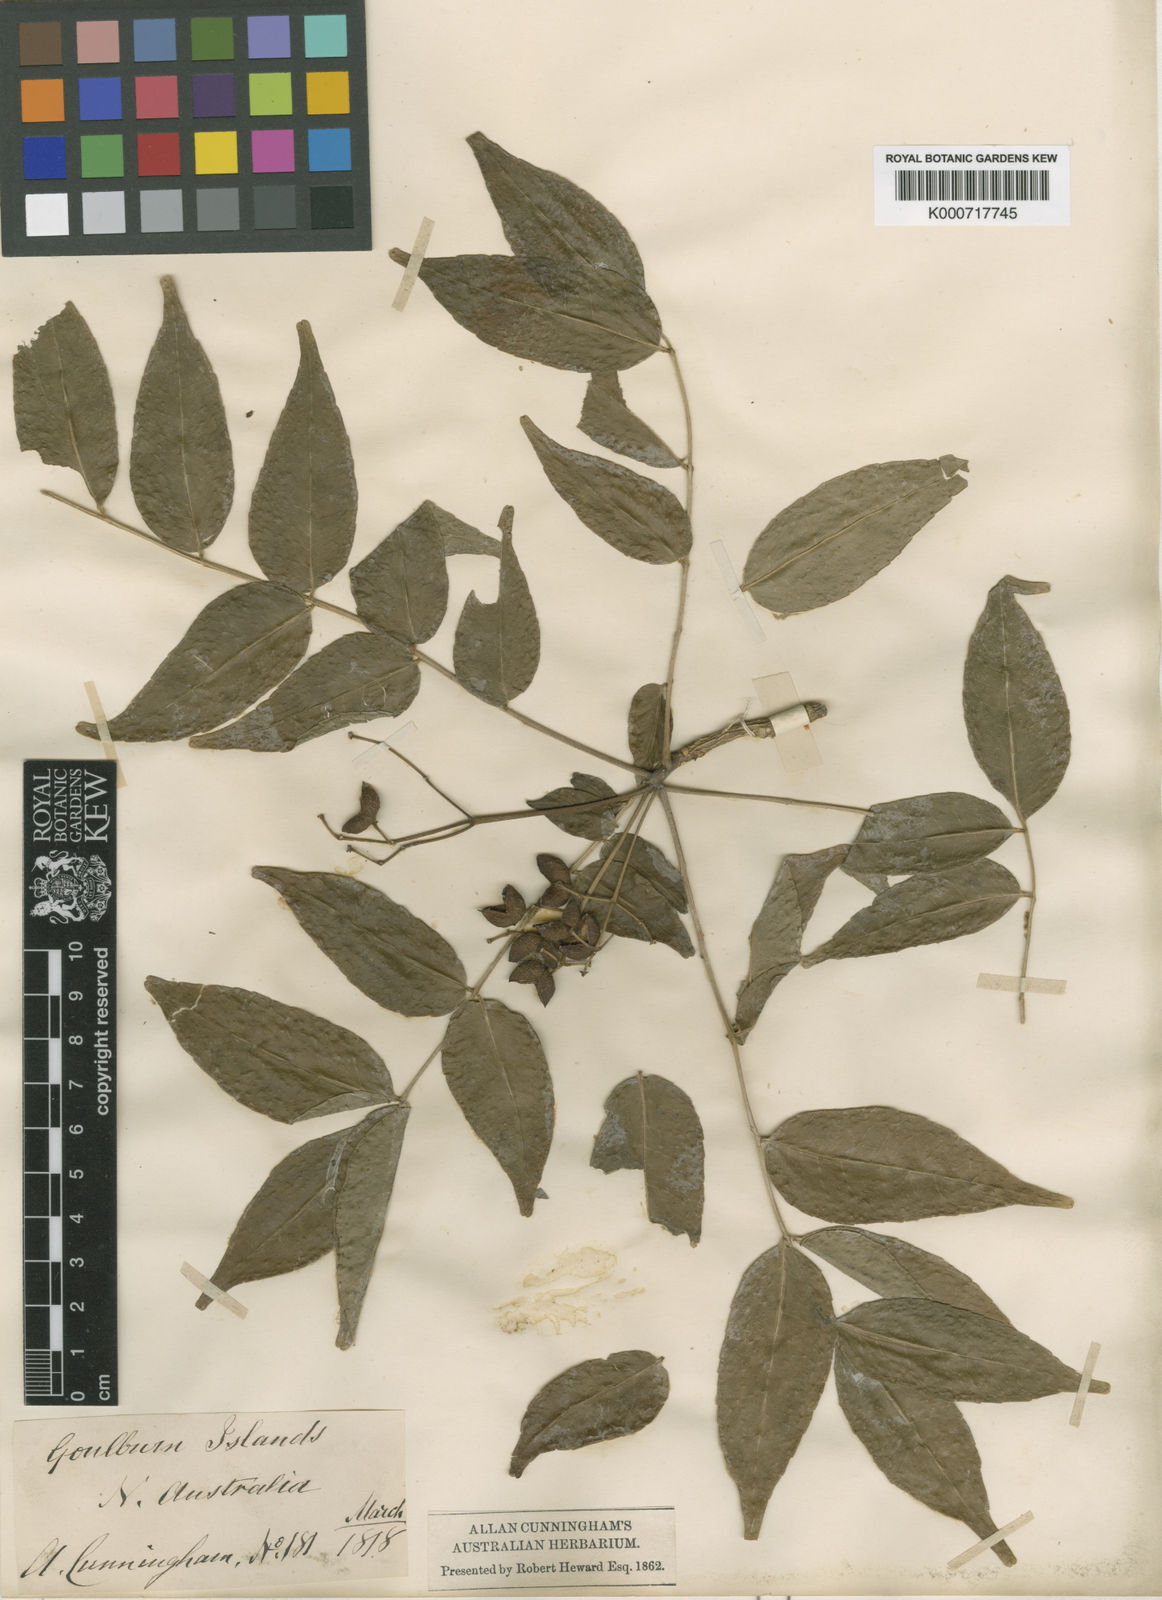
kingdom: Plantae
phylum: Tracheophyta
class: Magnoliopsida
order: Sapindales
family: Rutaceae
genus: Zanthoxylum
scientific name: Zanthoxylum rhetsa
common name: Indian ivy-rue
